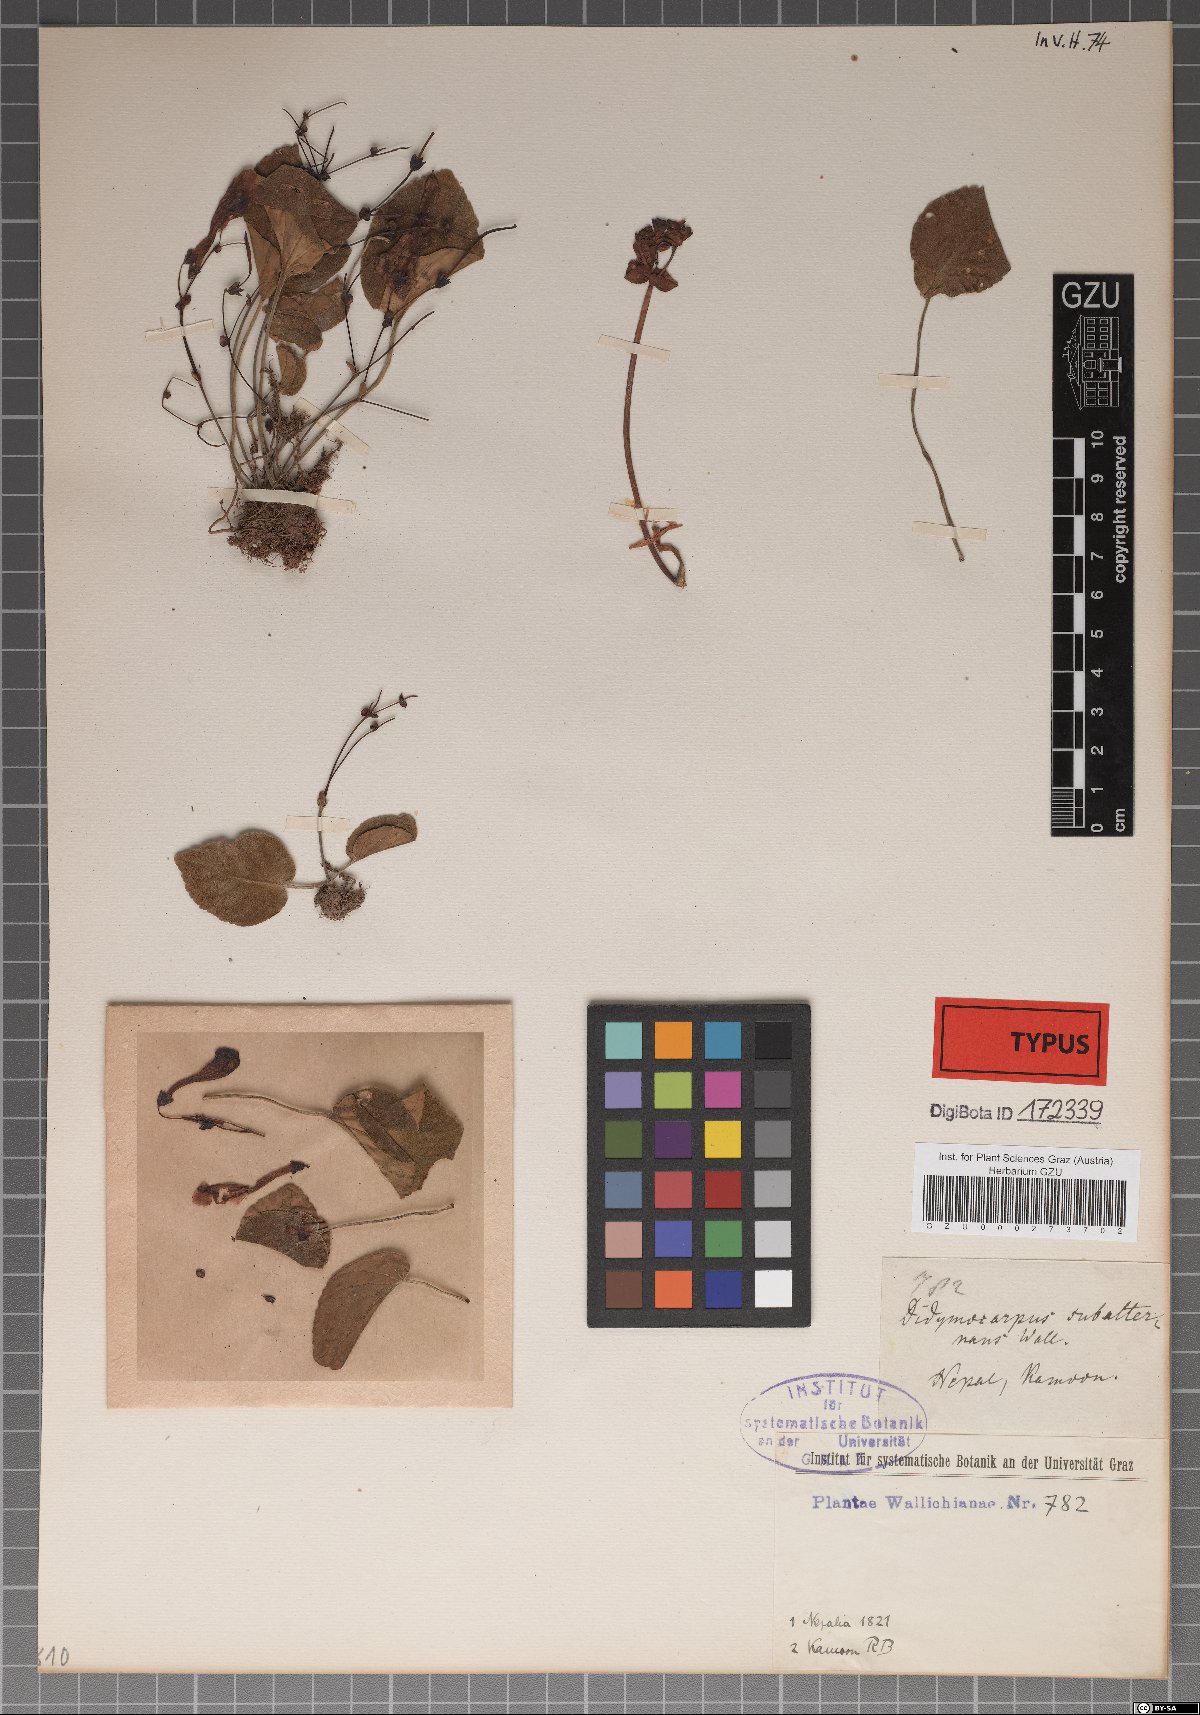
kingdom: Plantae
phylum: Tracheophyta
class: Magnoliopsida
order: Lamiales
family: Gesneriaceae
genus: Didymocarpus
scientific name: Didymocarpus
